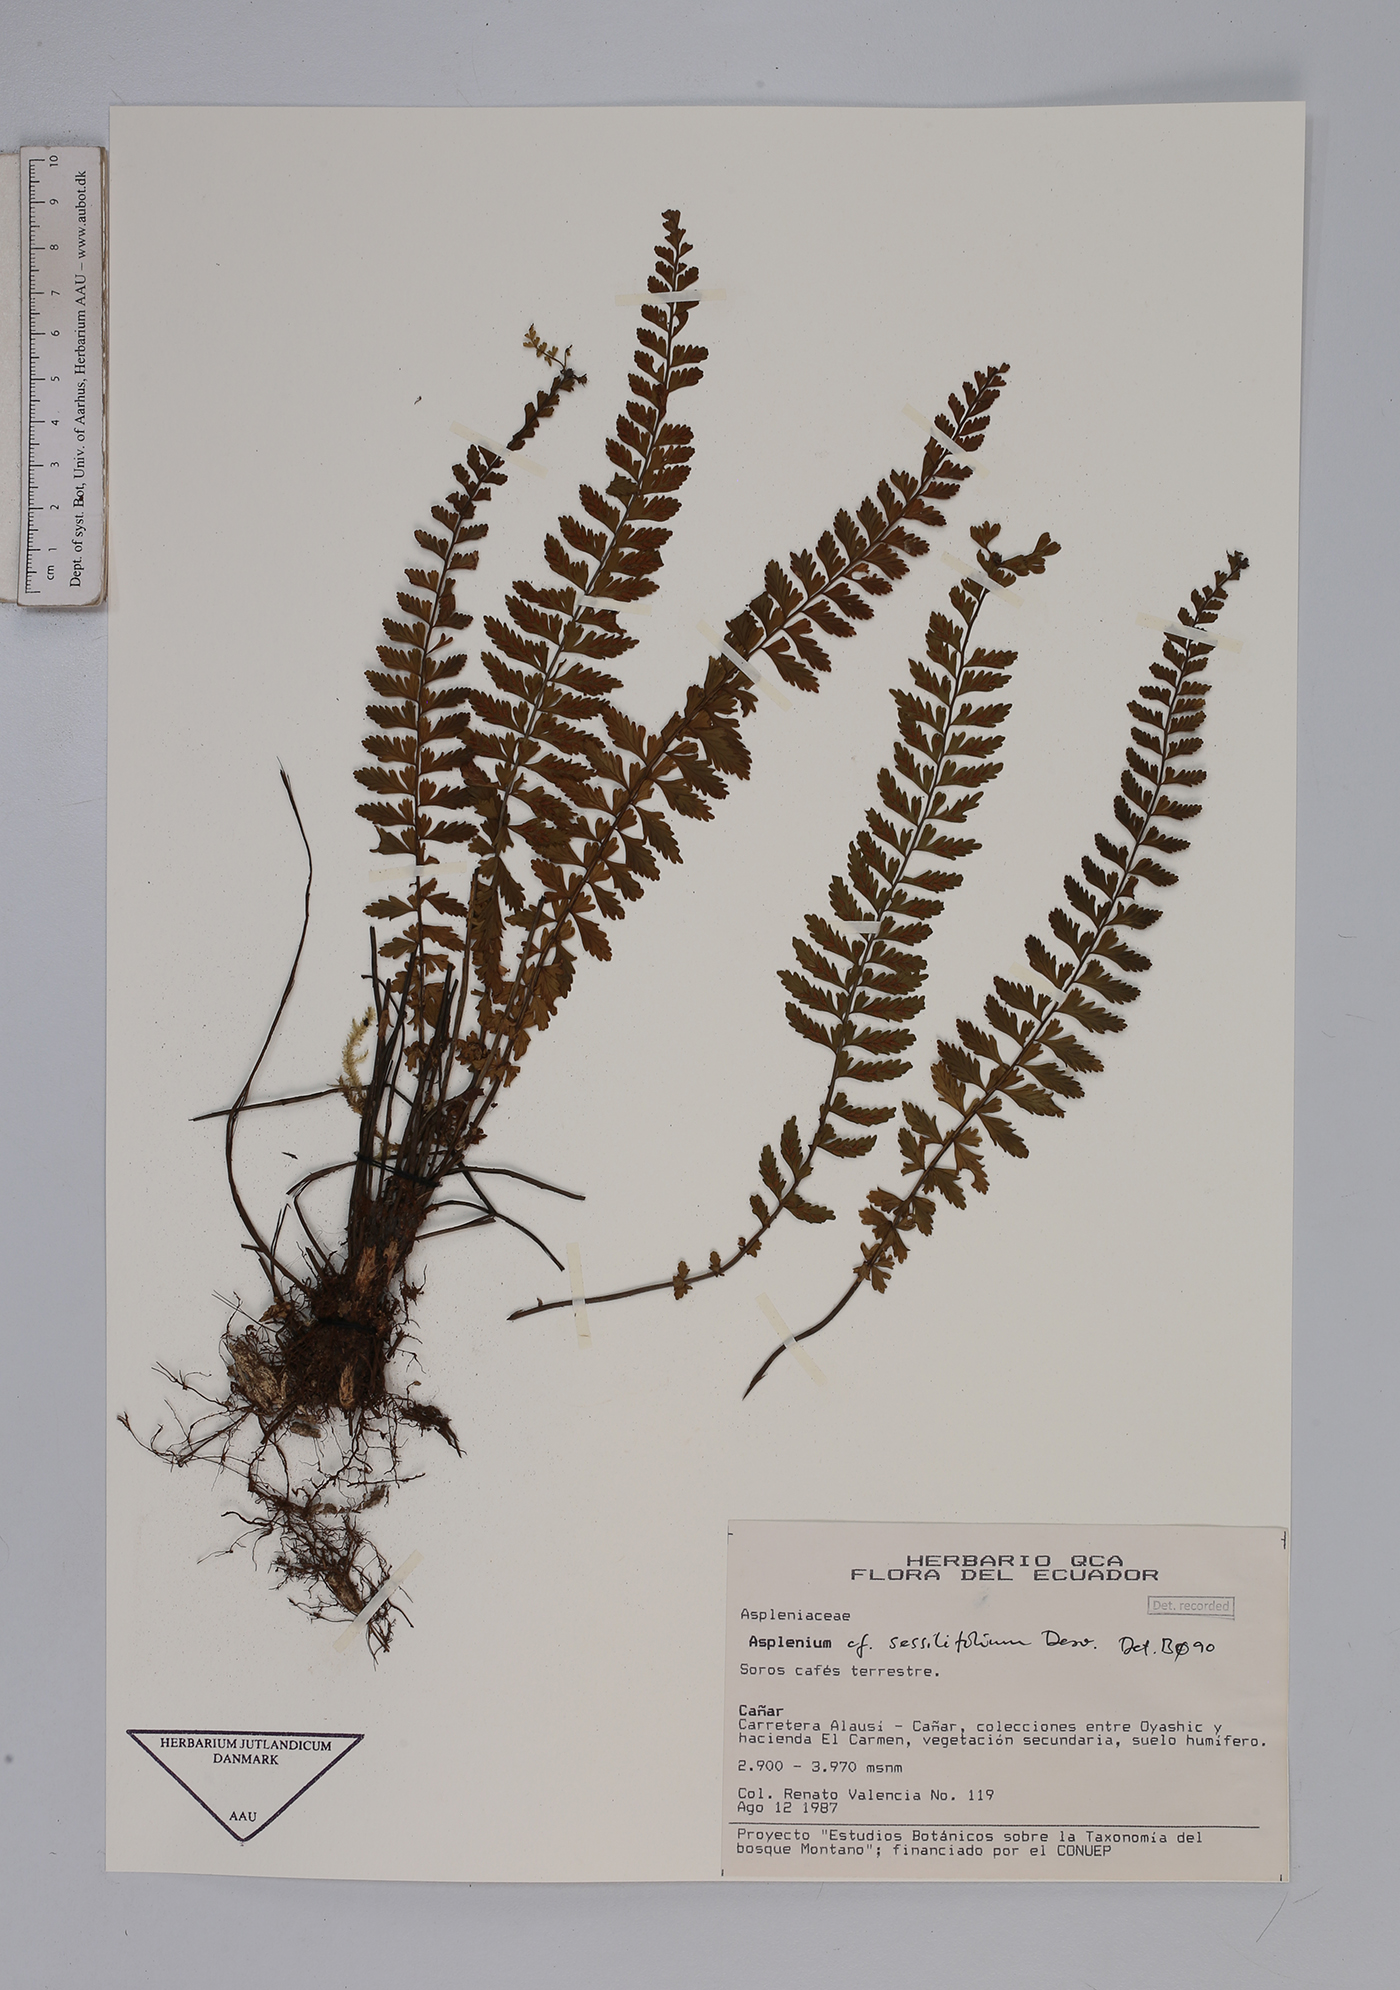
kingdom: Plantae
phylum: Tracheophyta
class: Polypodiopsida
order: Polypodiales
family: Aspleniaceae
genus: Asplenium
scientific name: Asplenium sessilifolium
